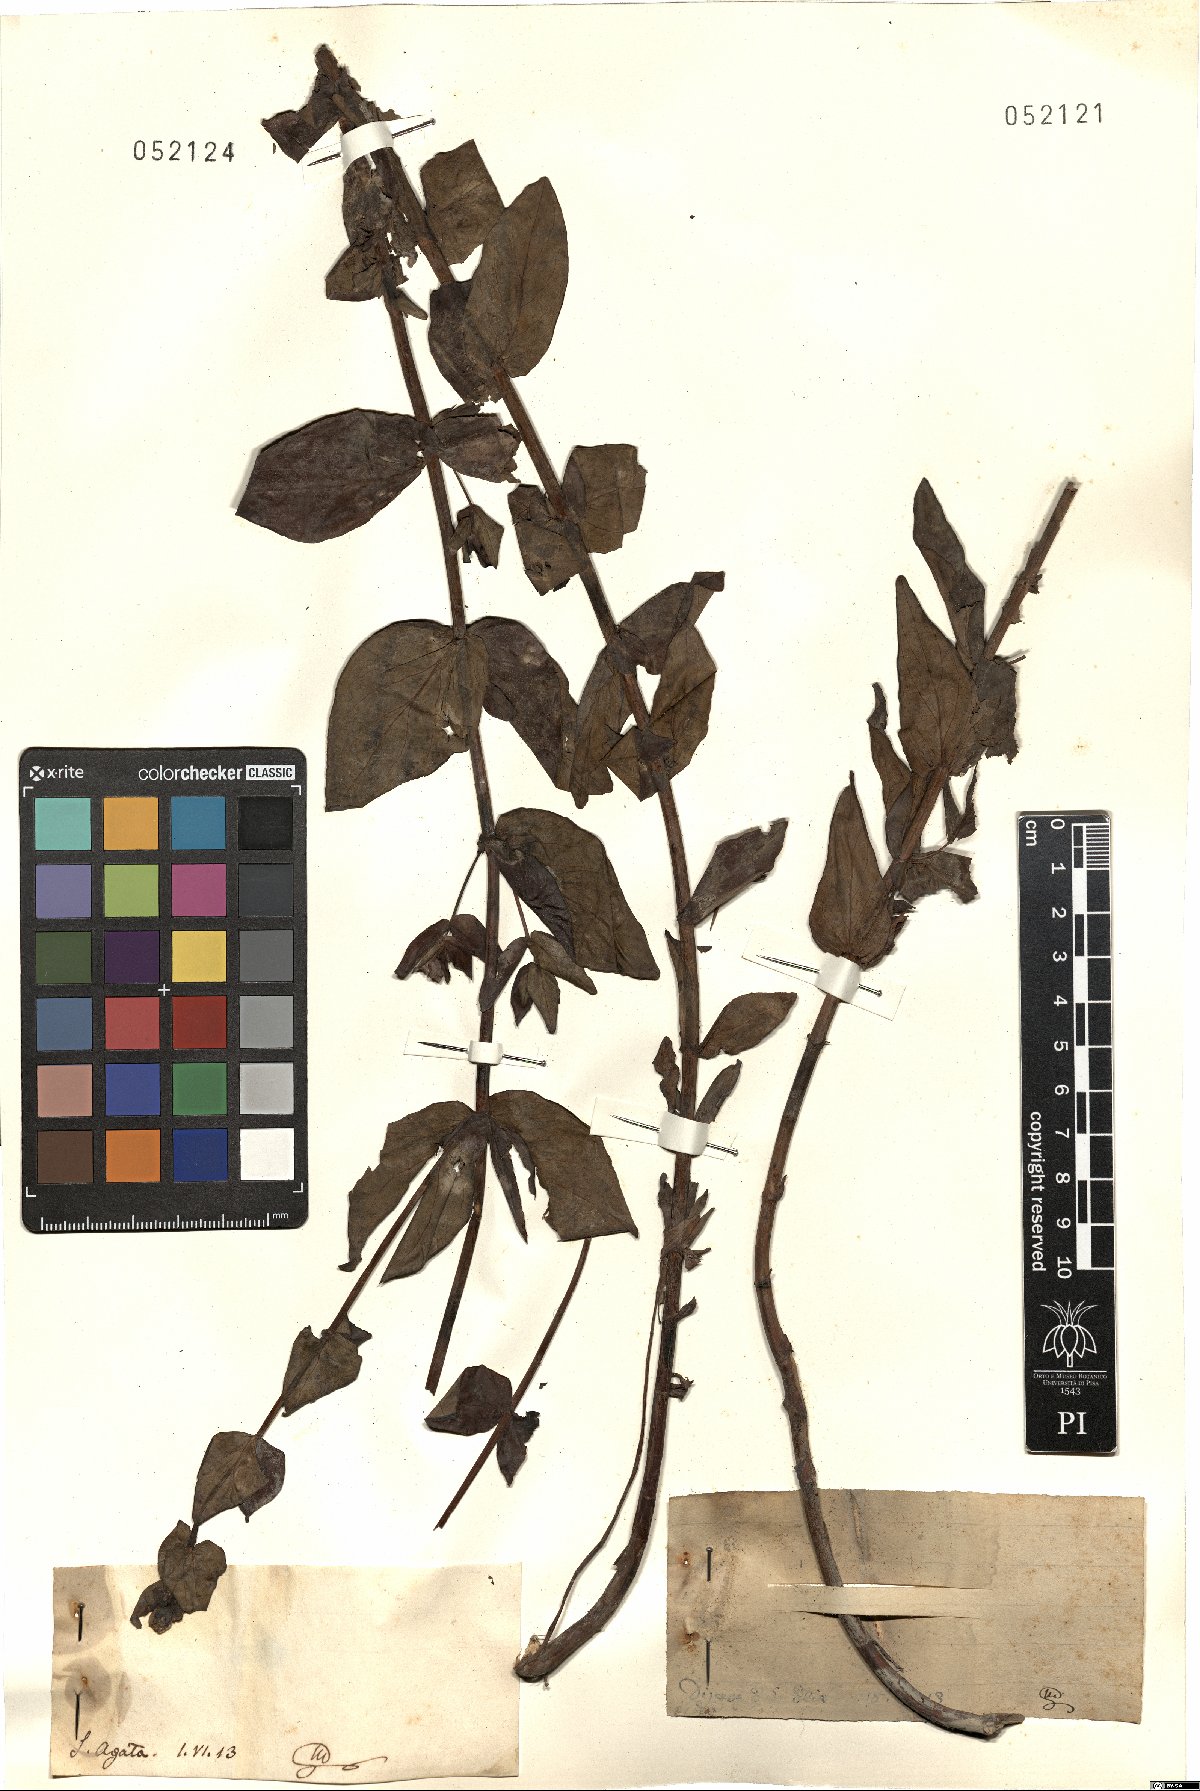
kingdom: Plantae
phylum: Tracheophyta
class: Magnoliopsida
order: Malpighiales
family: Hypericaceae
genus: Hypericum
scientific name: Hypericum
